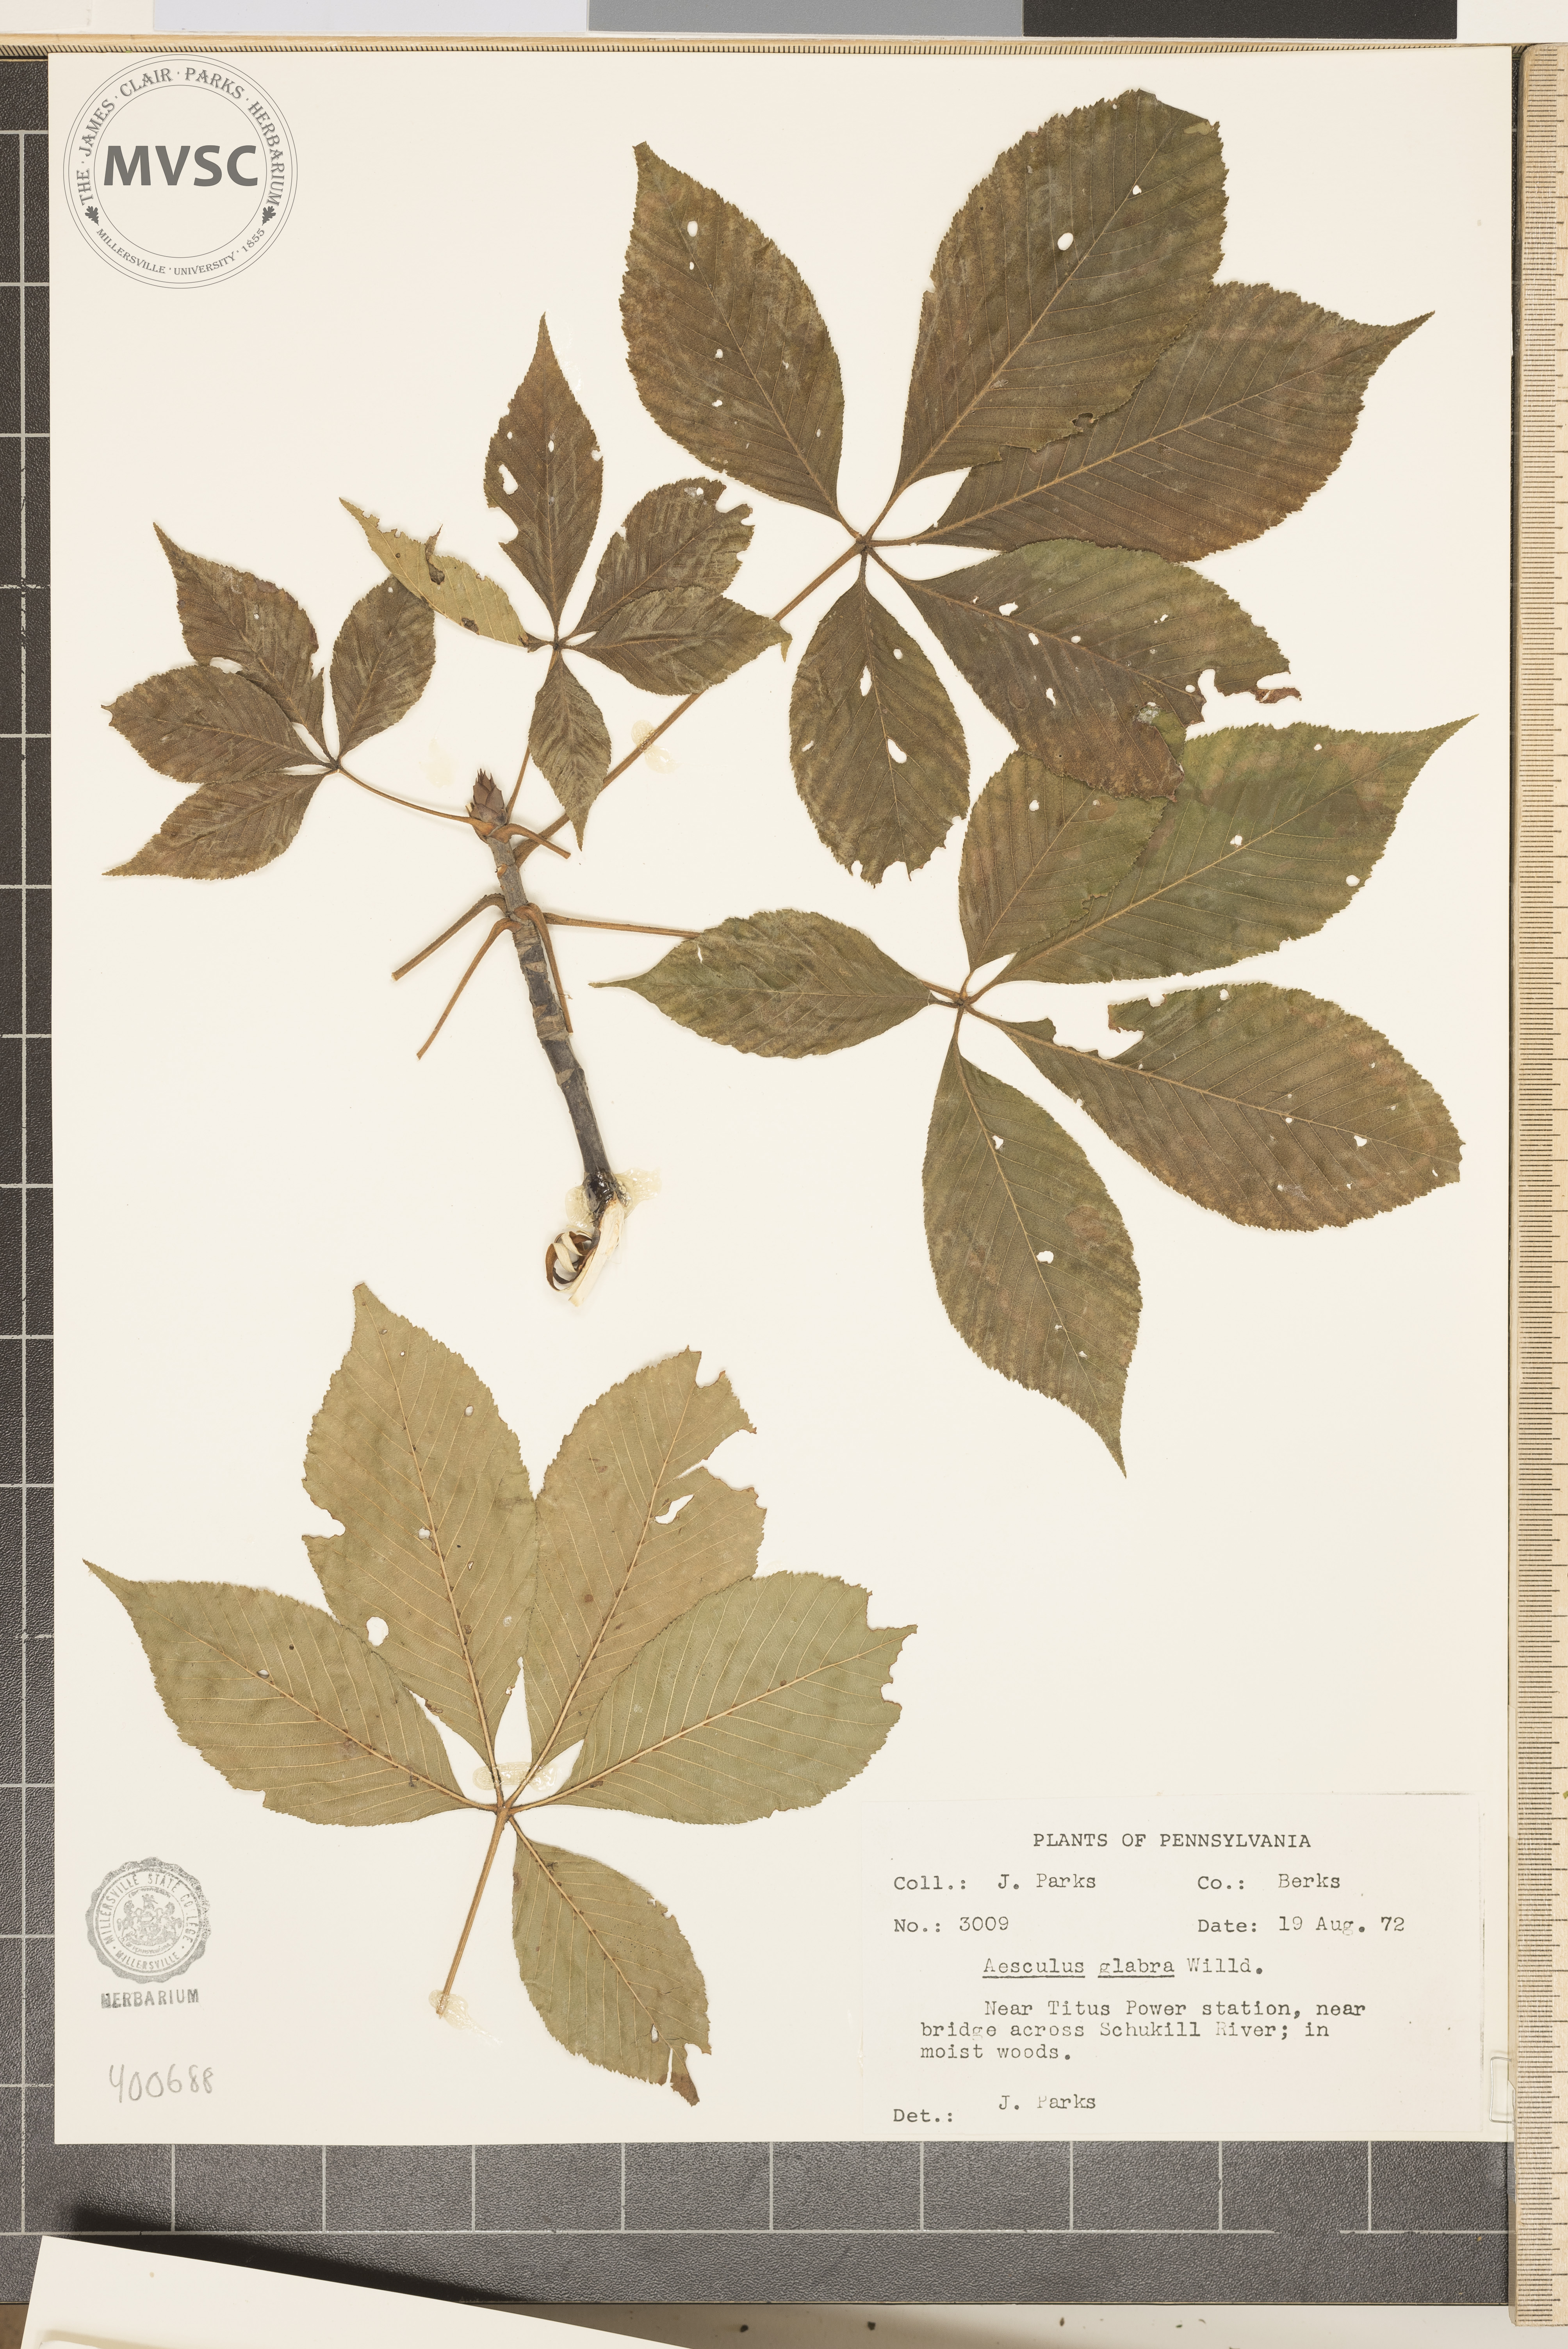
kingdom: Plantae
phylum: Tracheophyta
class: Magnoliopsida
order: Sapindales
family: Sapindaceae
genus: Aesculus
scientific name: Aesculus glabra
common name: buckeye
